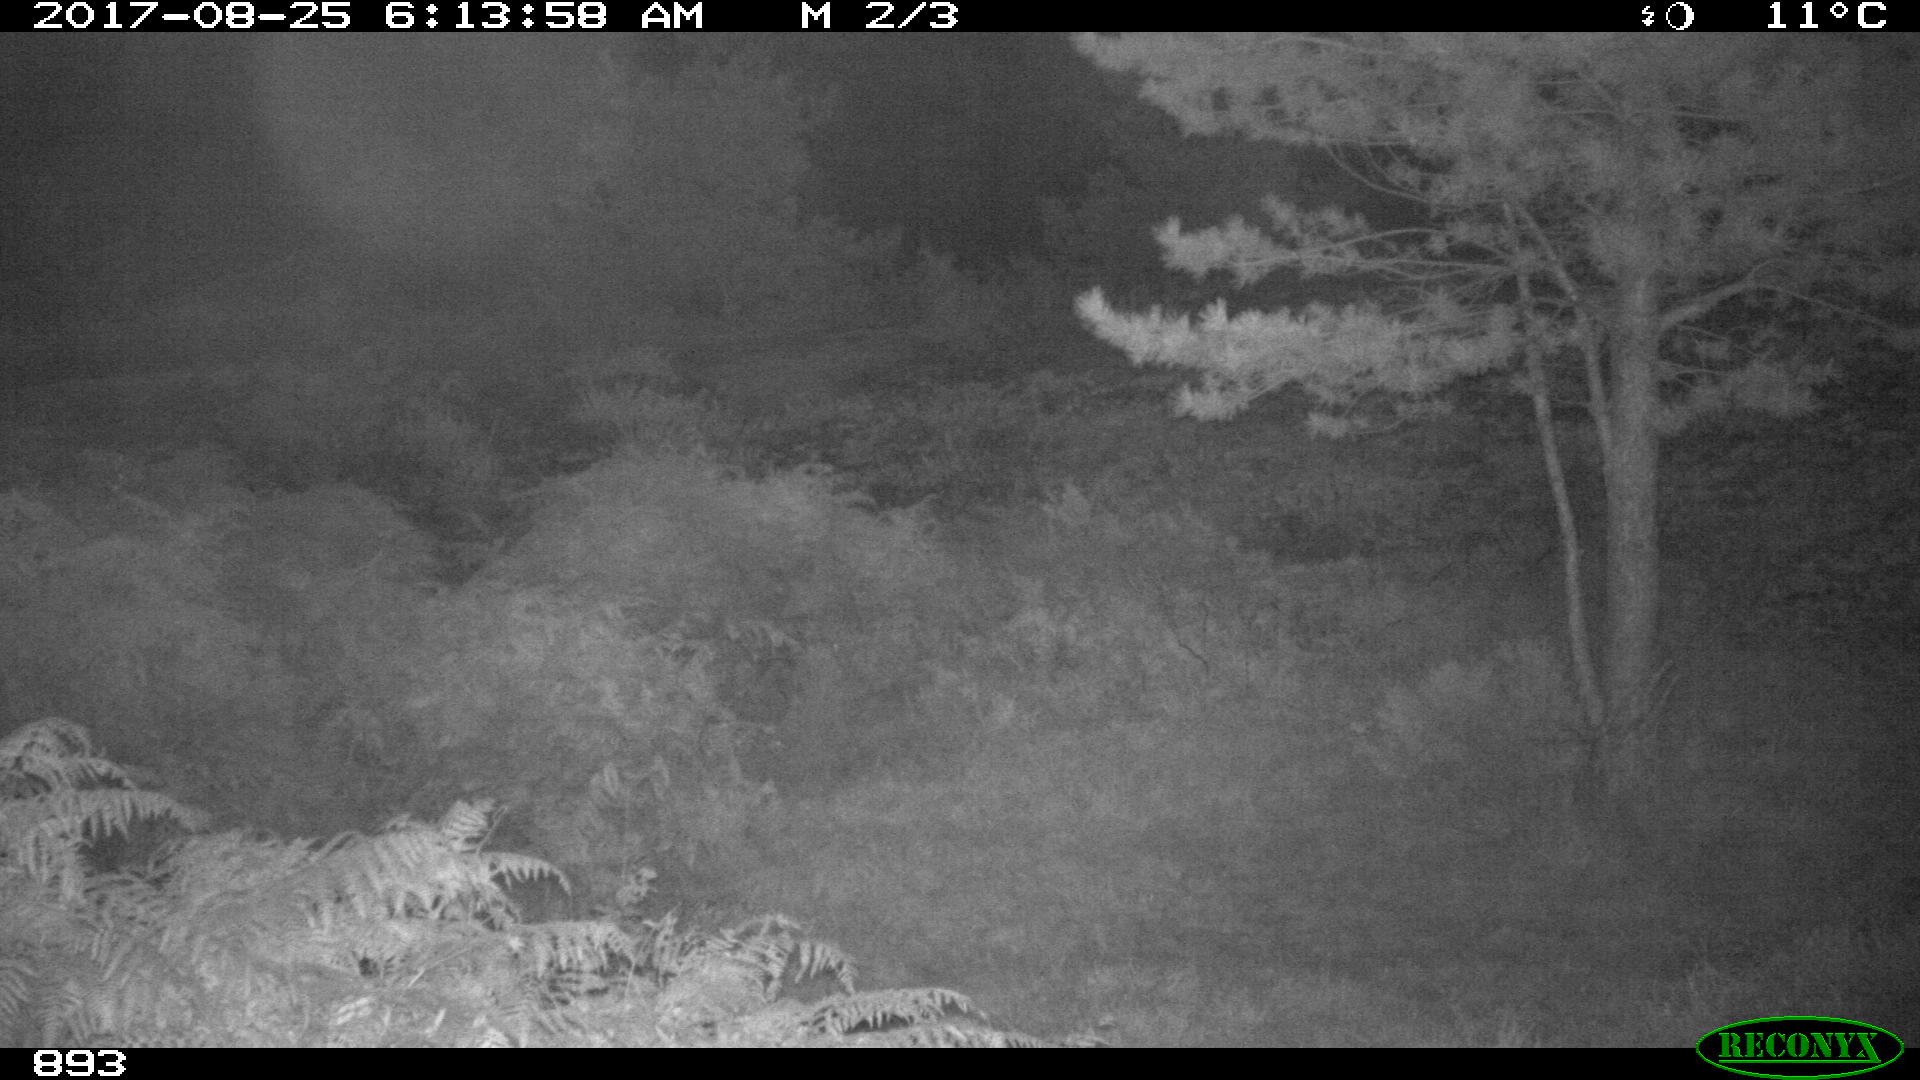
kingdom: Animalia
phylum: Chordata
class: Mammalia
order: Perissodactyla
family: Equidae
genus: Equus
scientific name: Equus caballus
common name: Horse
